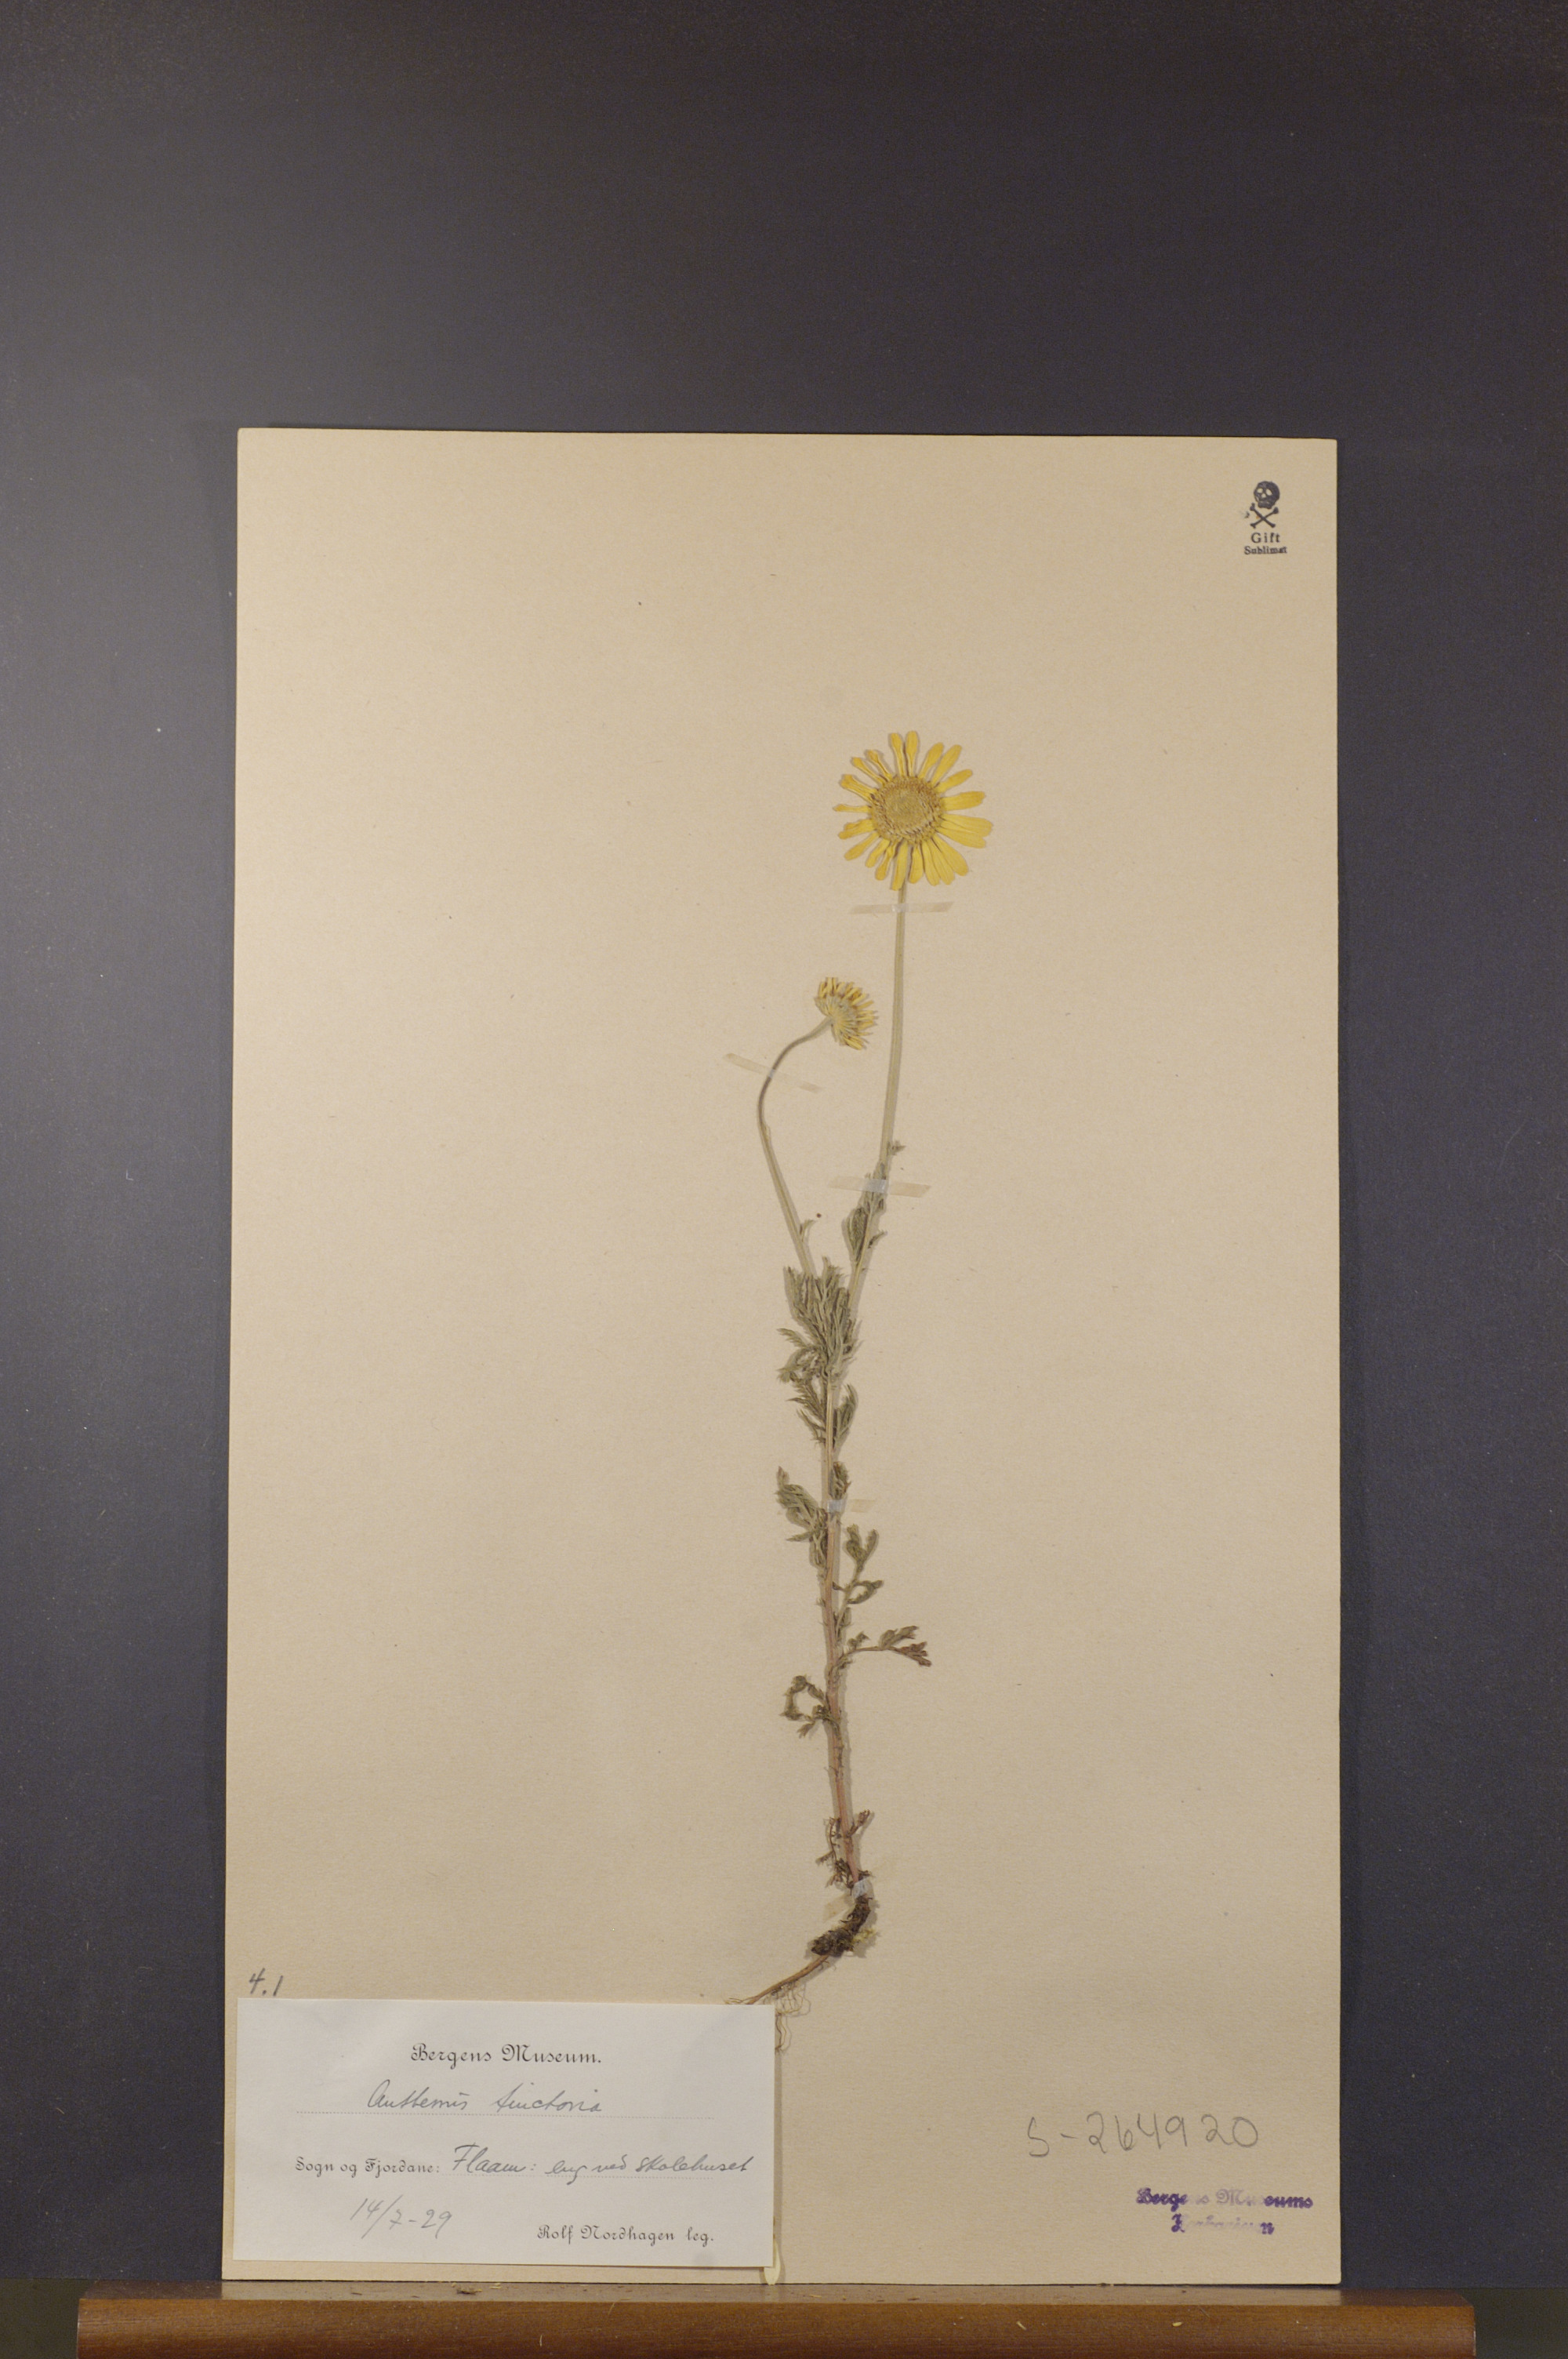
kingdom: Plantae
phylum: Tracheophyta
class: Magnoliopsida
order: Asterales
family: Asteraceae
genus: Cota
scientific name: Cota tinctoria
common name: Golden chamomile
